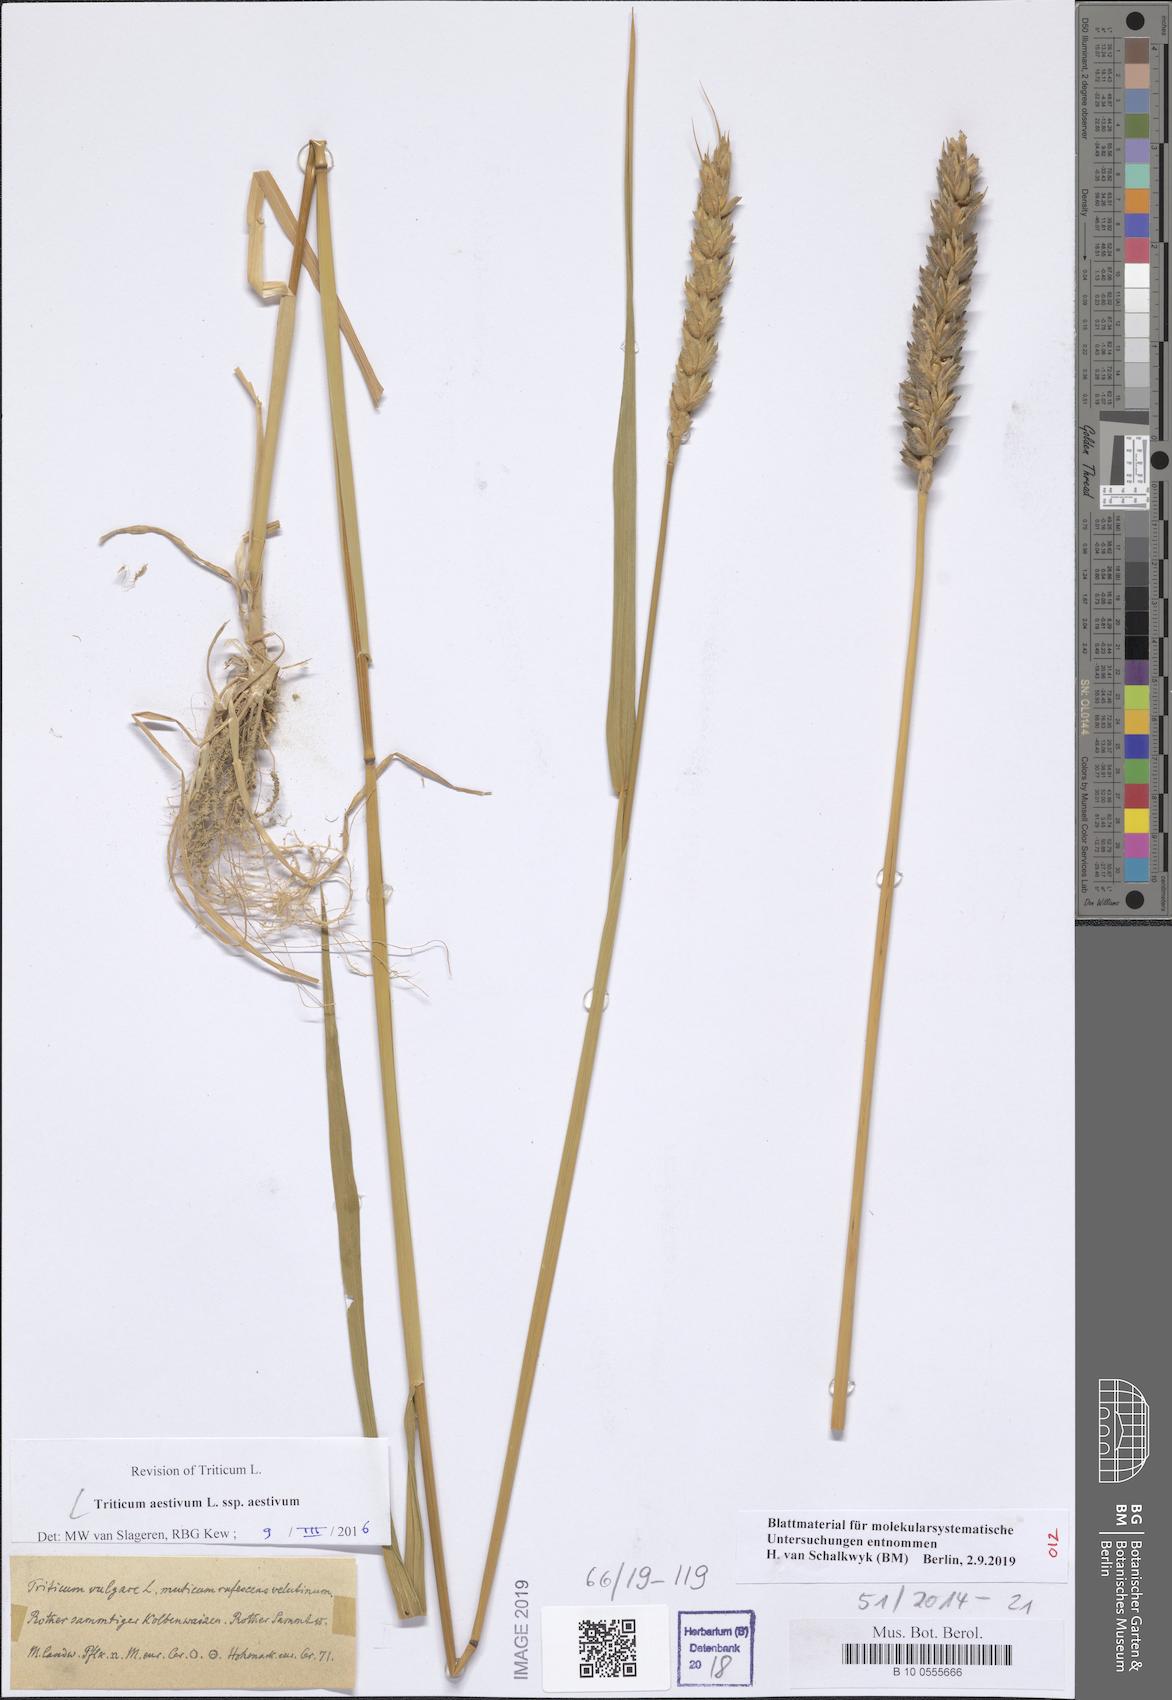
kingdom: Plantae
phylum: Tracheophyta
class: Liliopsida
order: Poales
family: Poaceae
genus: Triticum
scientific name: Triticum aestivum
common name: Common wheat
